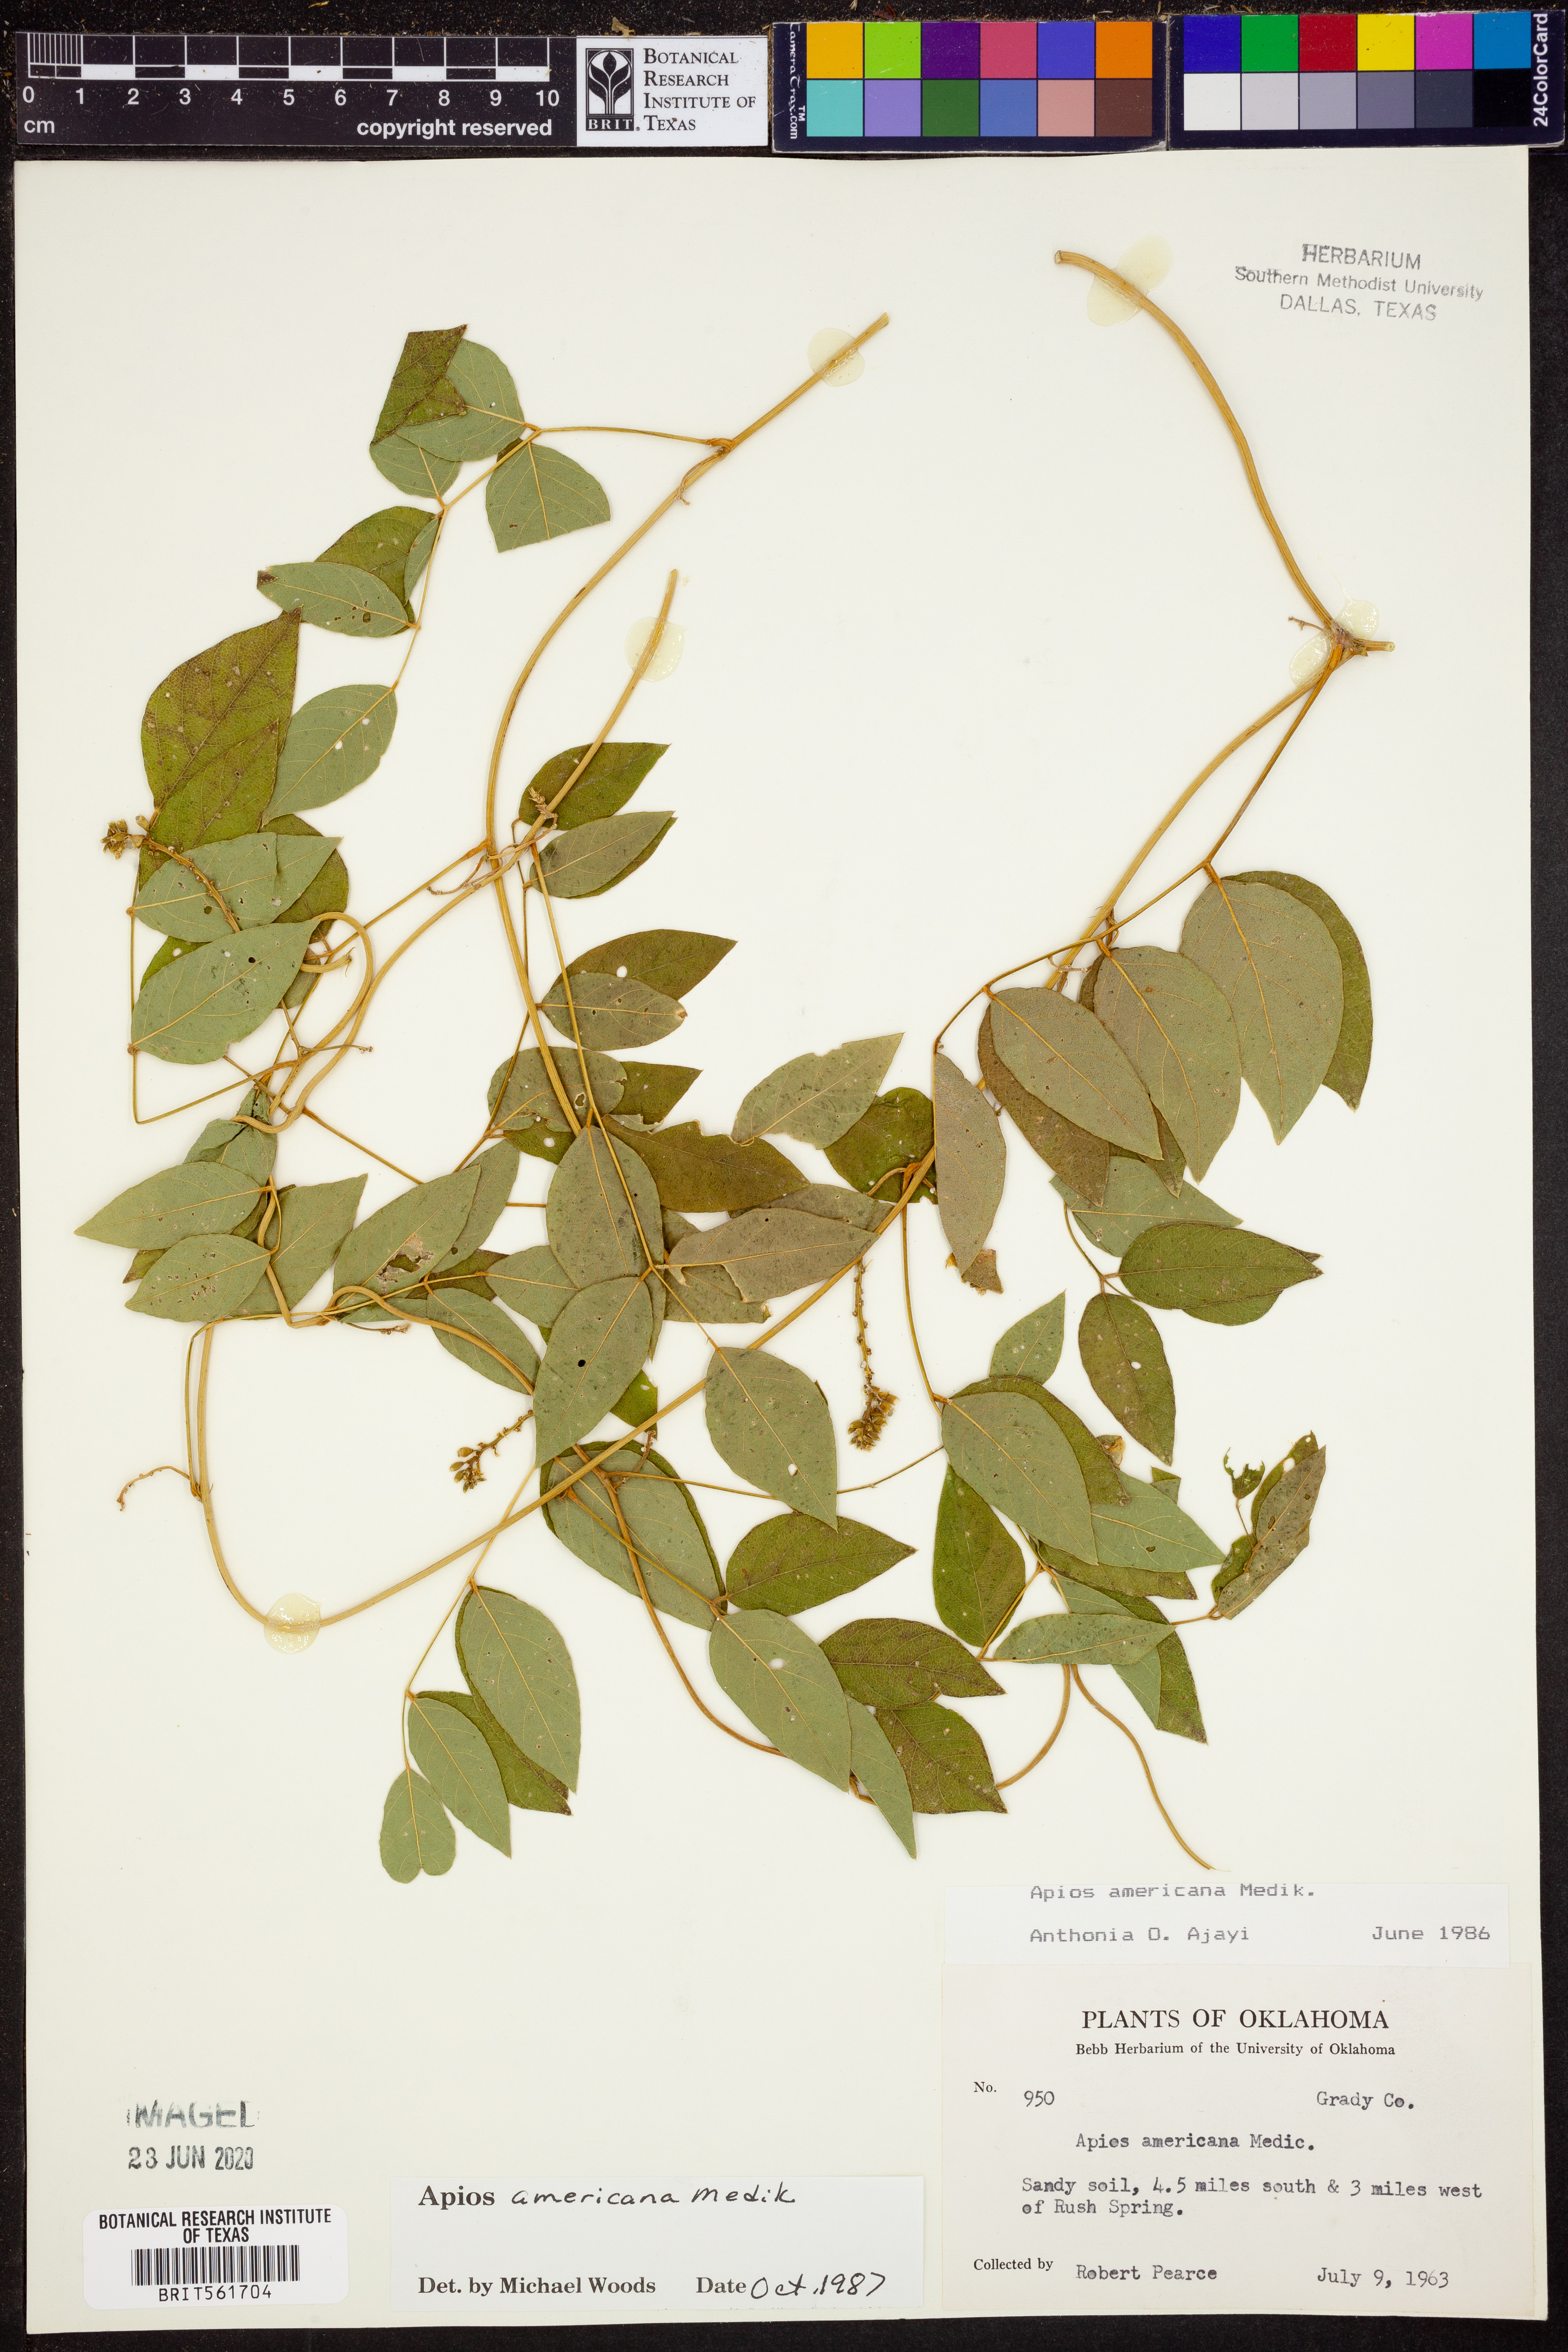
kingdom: Plantae
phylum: Tracheophyta
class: Magnoliopsida
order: Fabales
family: Fabaceae
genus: Apios
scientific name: Apios americana
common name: American potato-bean
